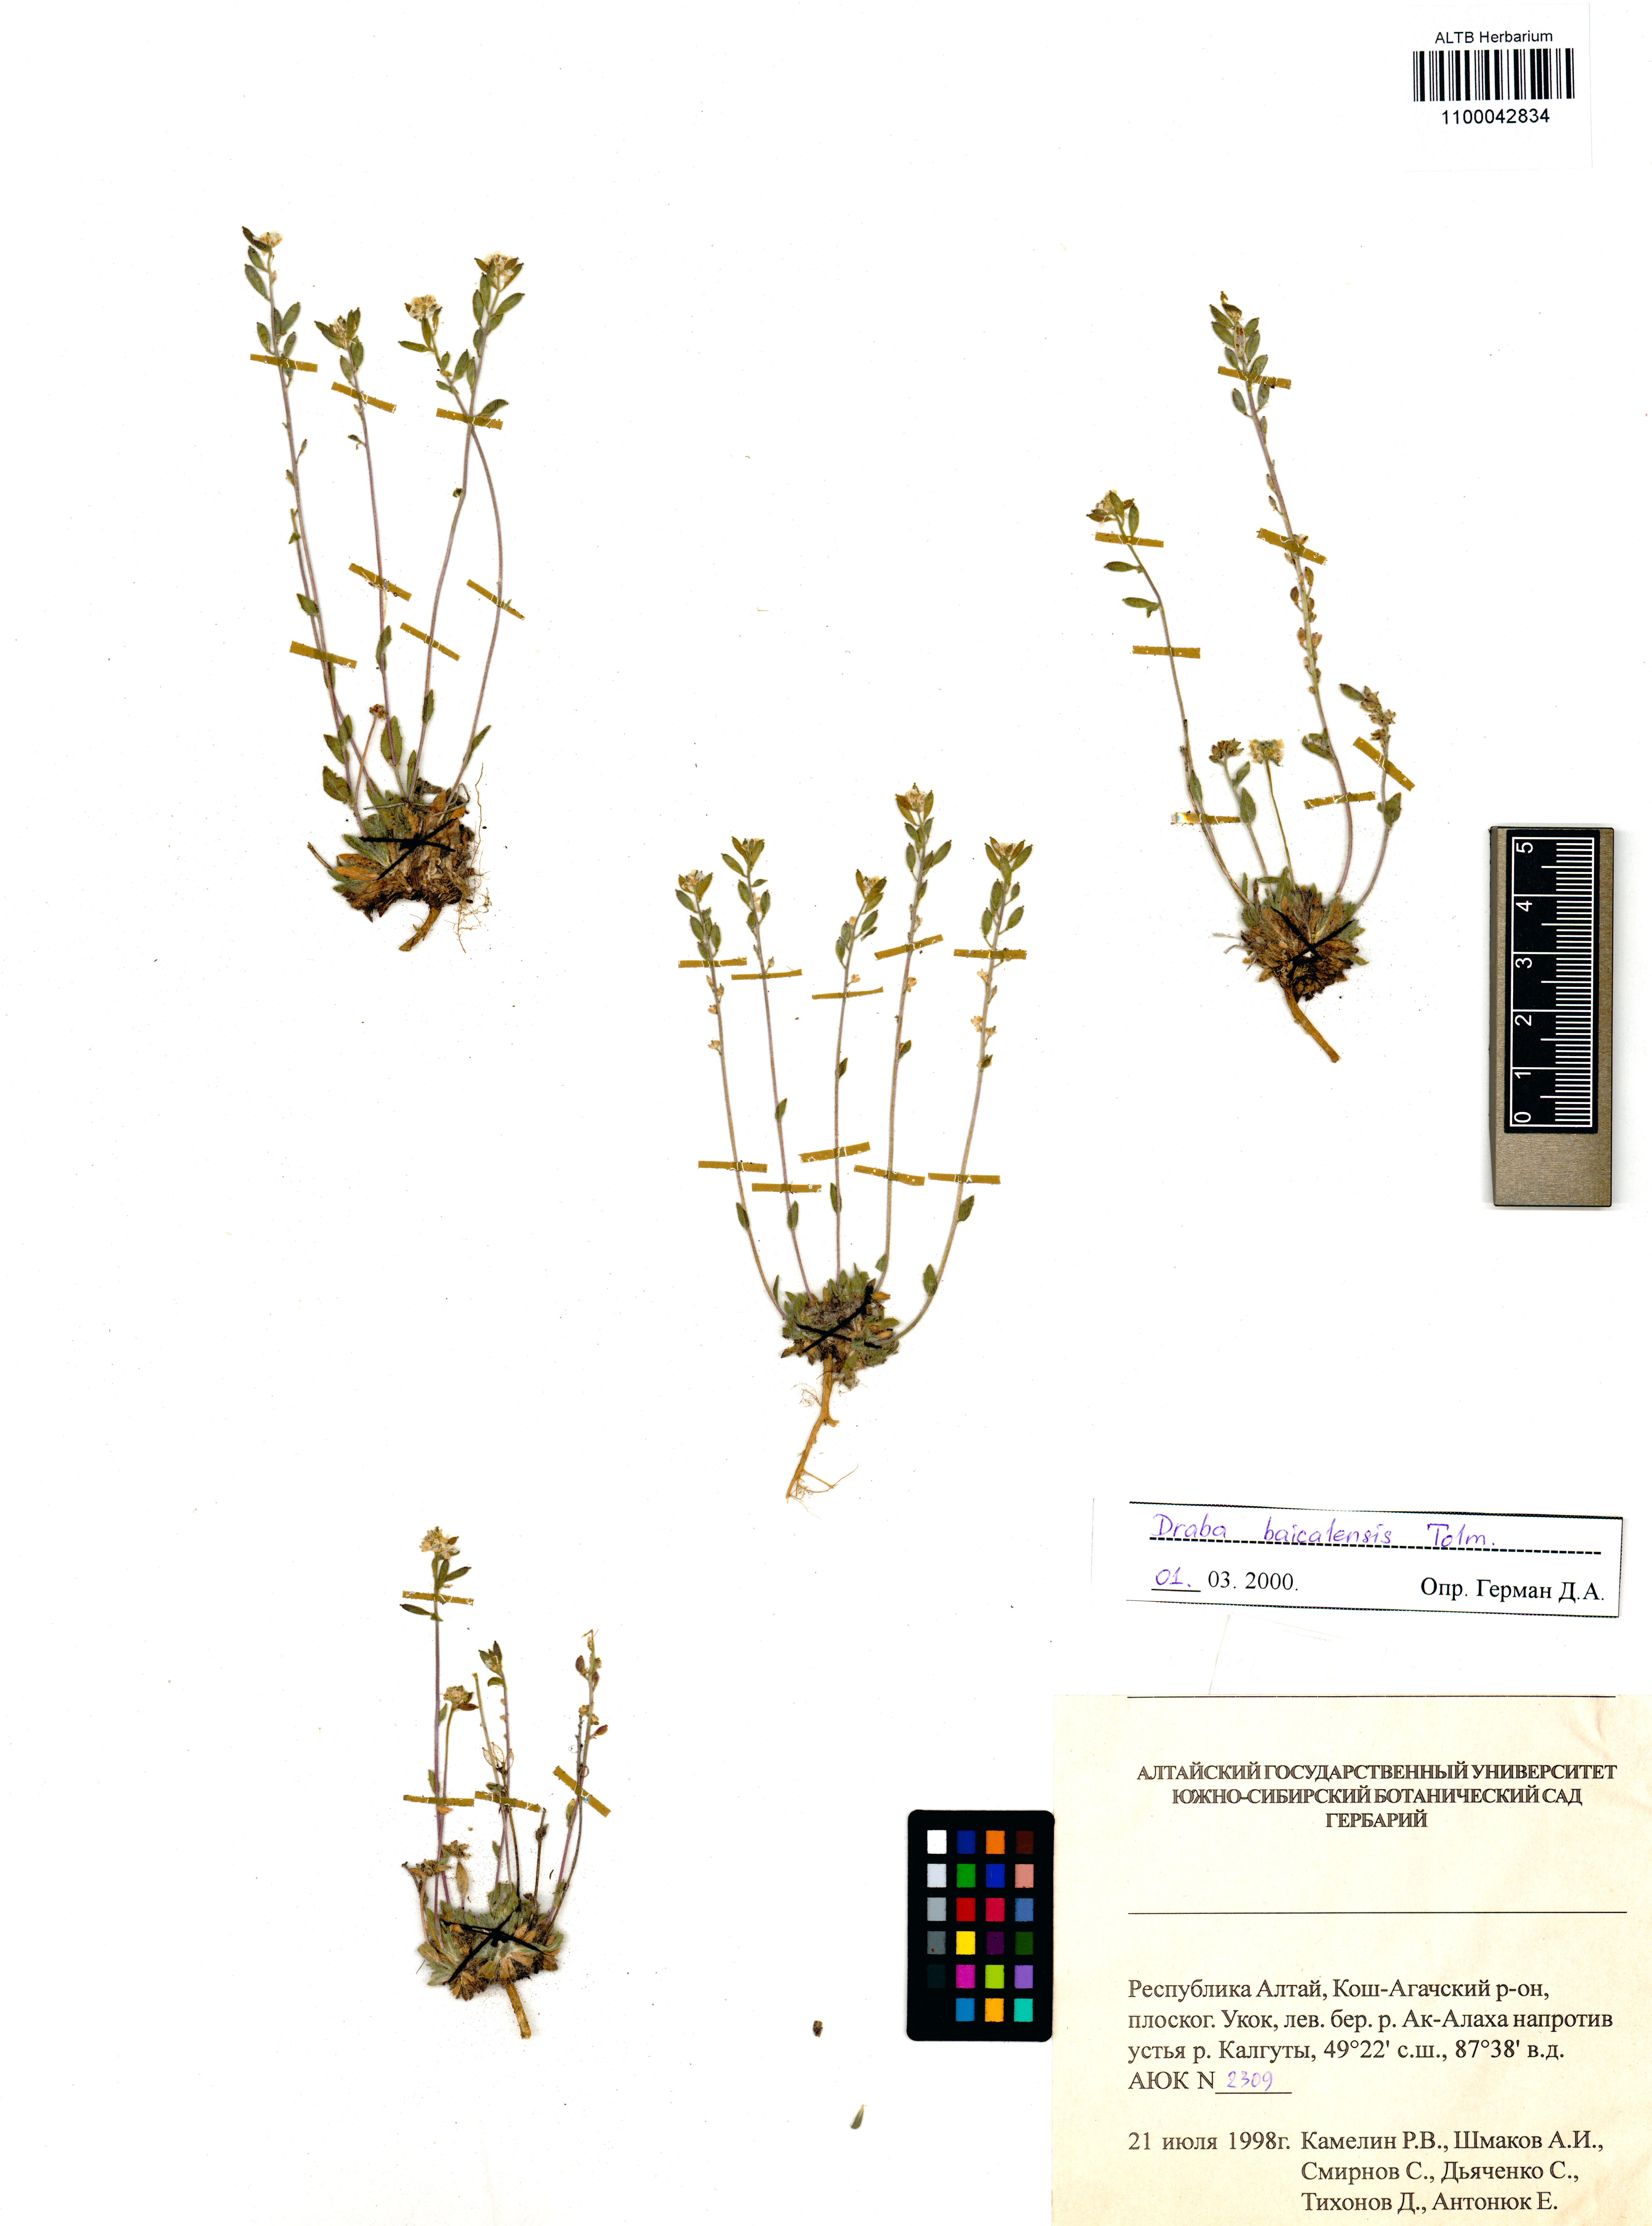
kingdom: Plantae
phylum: Tracheophyta
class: Magnoliopsida
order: Brassicales
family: Brassicaceae
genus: Draba
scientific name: Draba baicalensis
